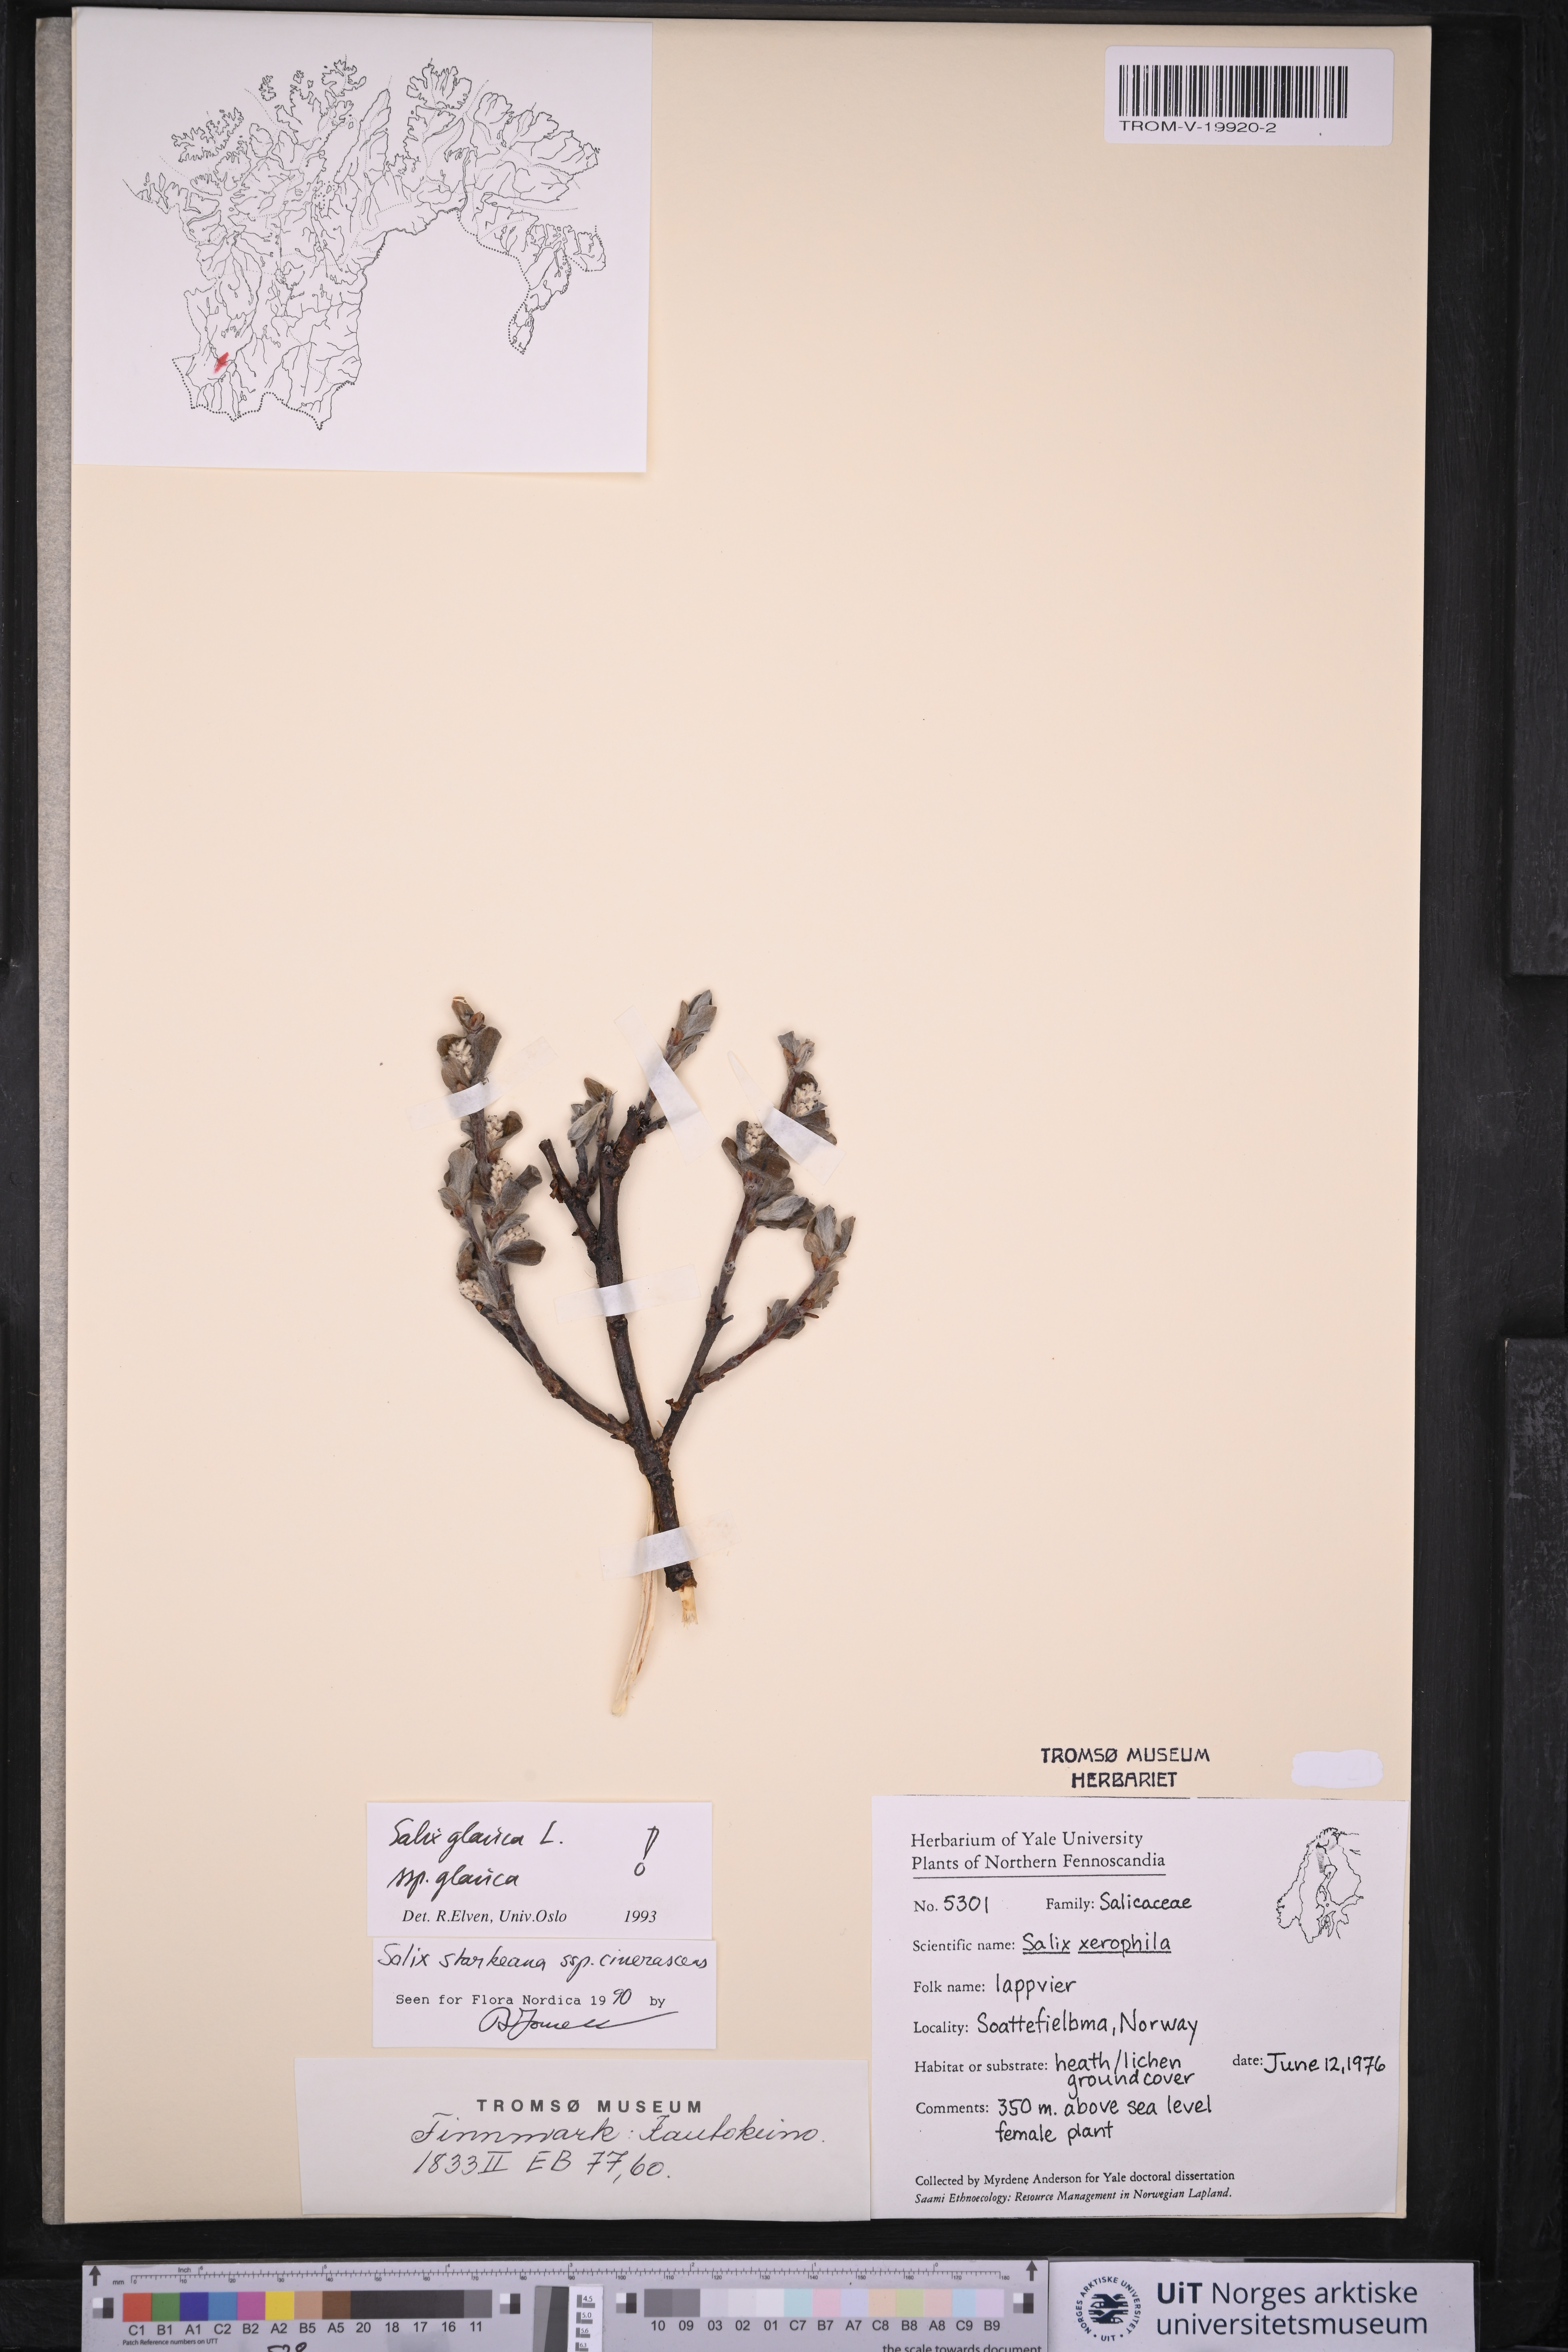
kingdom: Plantae
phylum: Tracheophyta
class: Magnoliopsida
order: Malpighiales
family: Salicaceae
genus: Salix
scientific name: Salix glauca
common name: Glaucous willow
